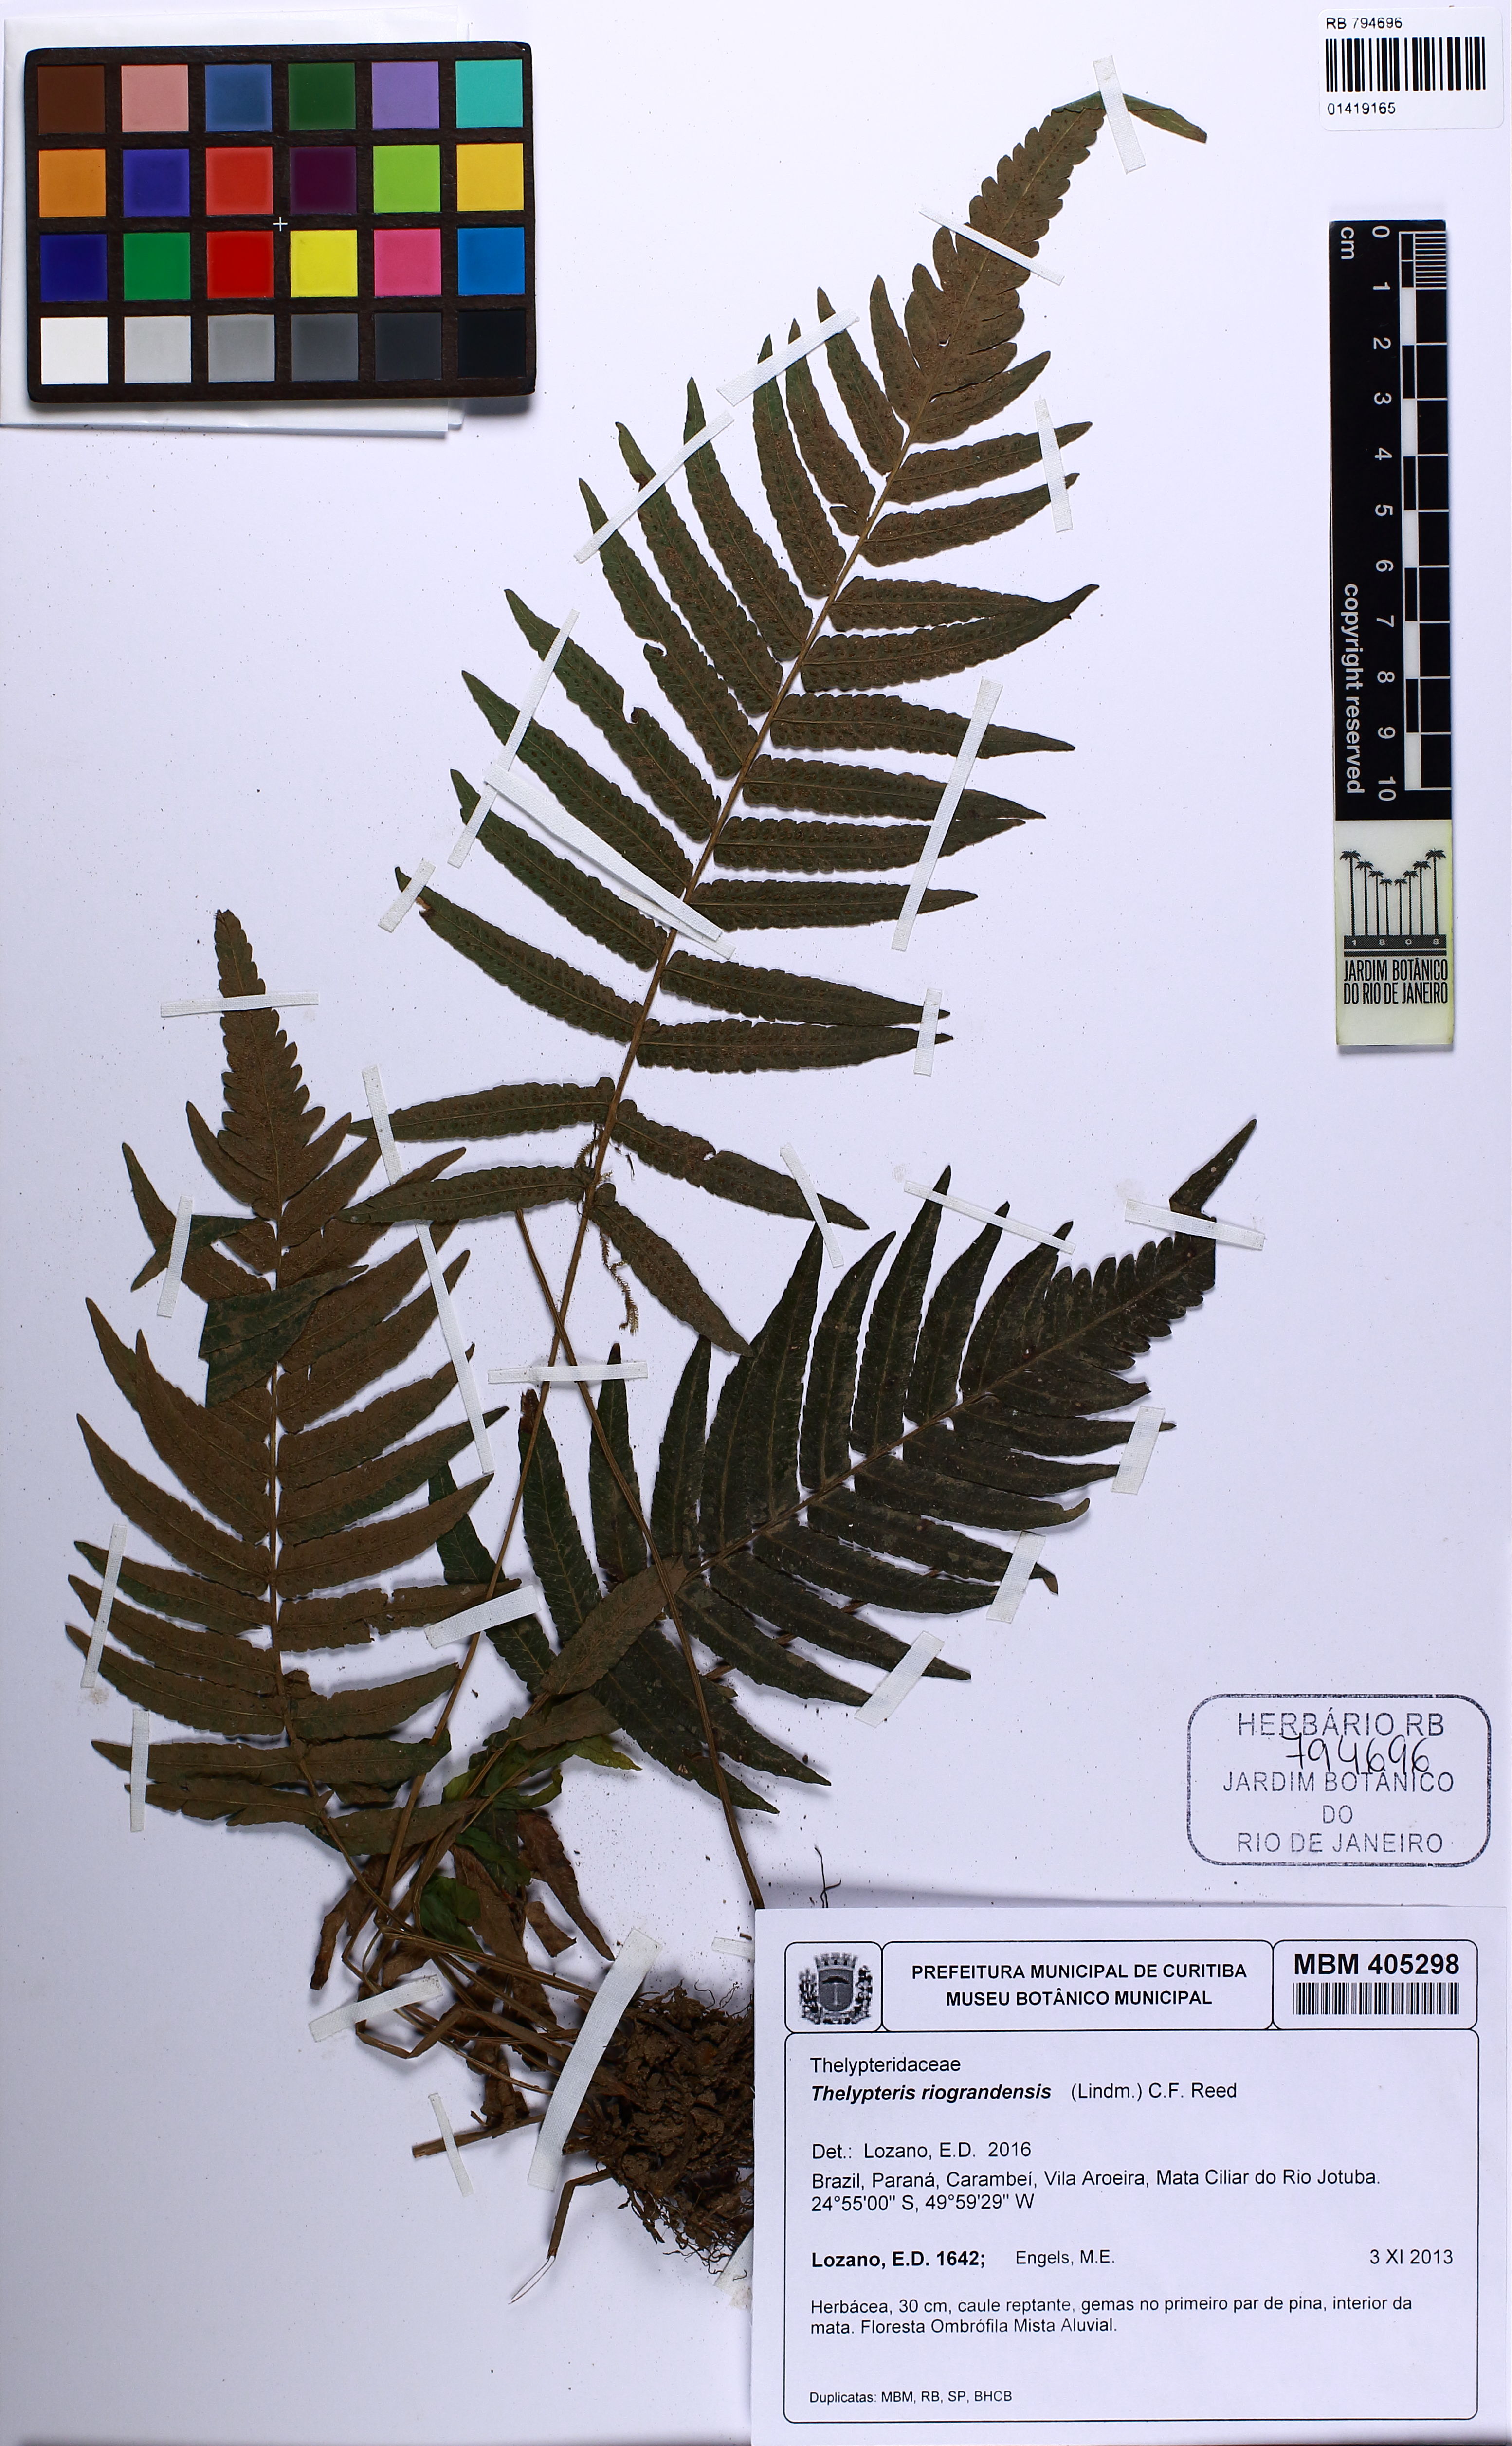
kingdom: Plantae
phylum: Tracheophyta
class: Polypodiopsida
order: Polypodiales
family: Thelypteridaceae
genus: Goniopteris
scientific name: Goniopteris riograndensis
